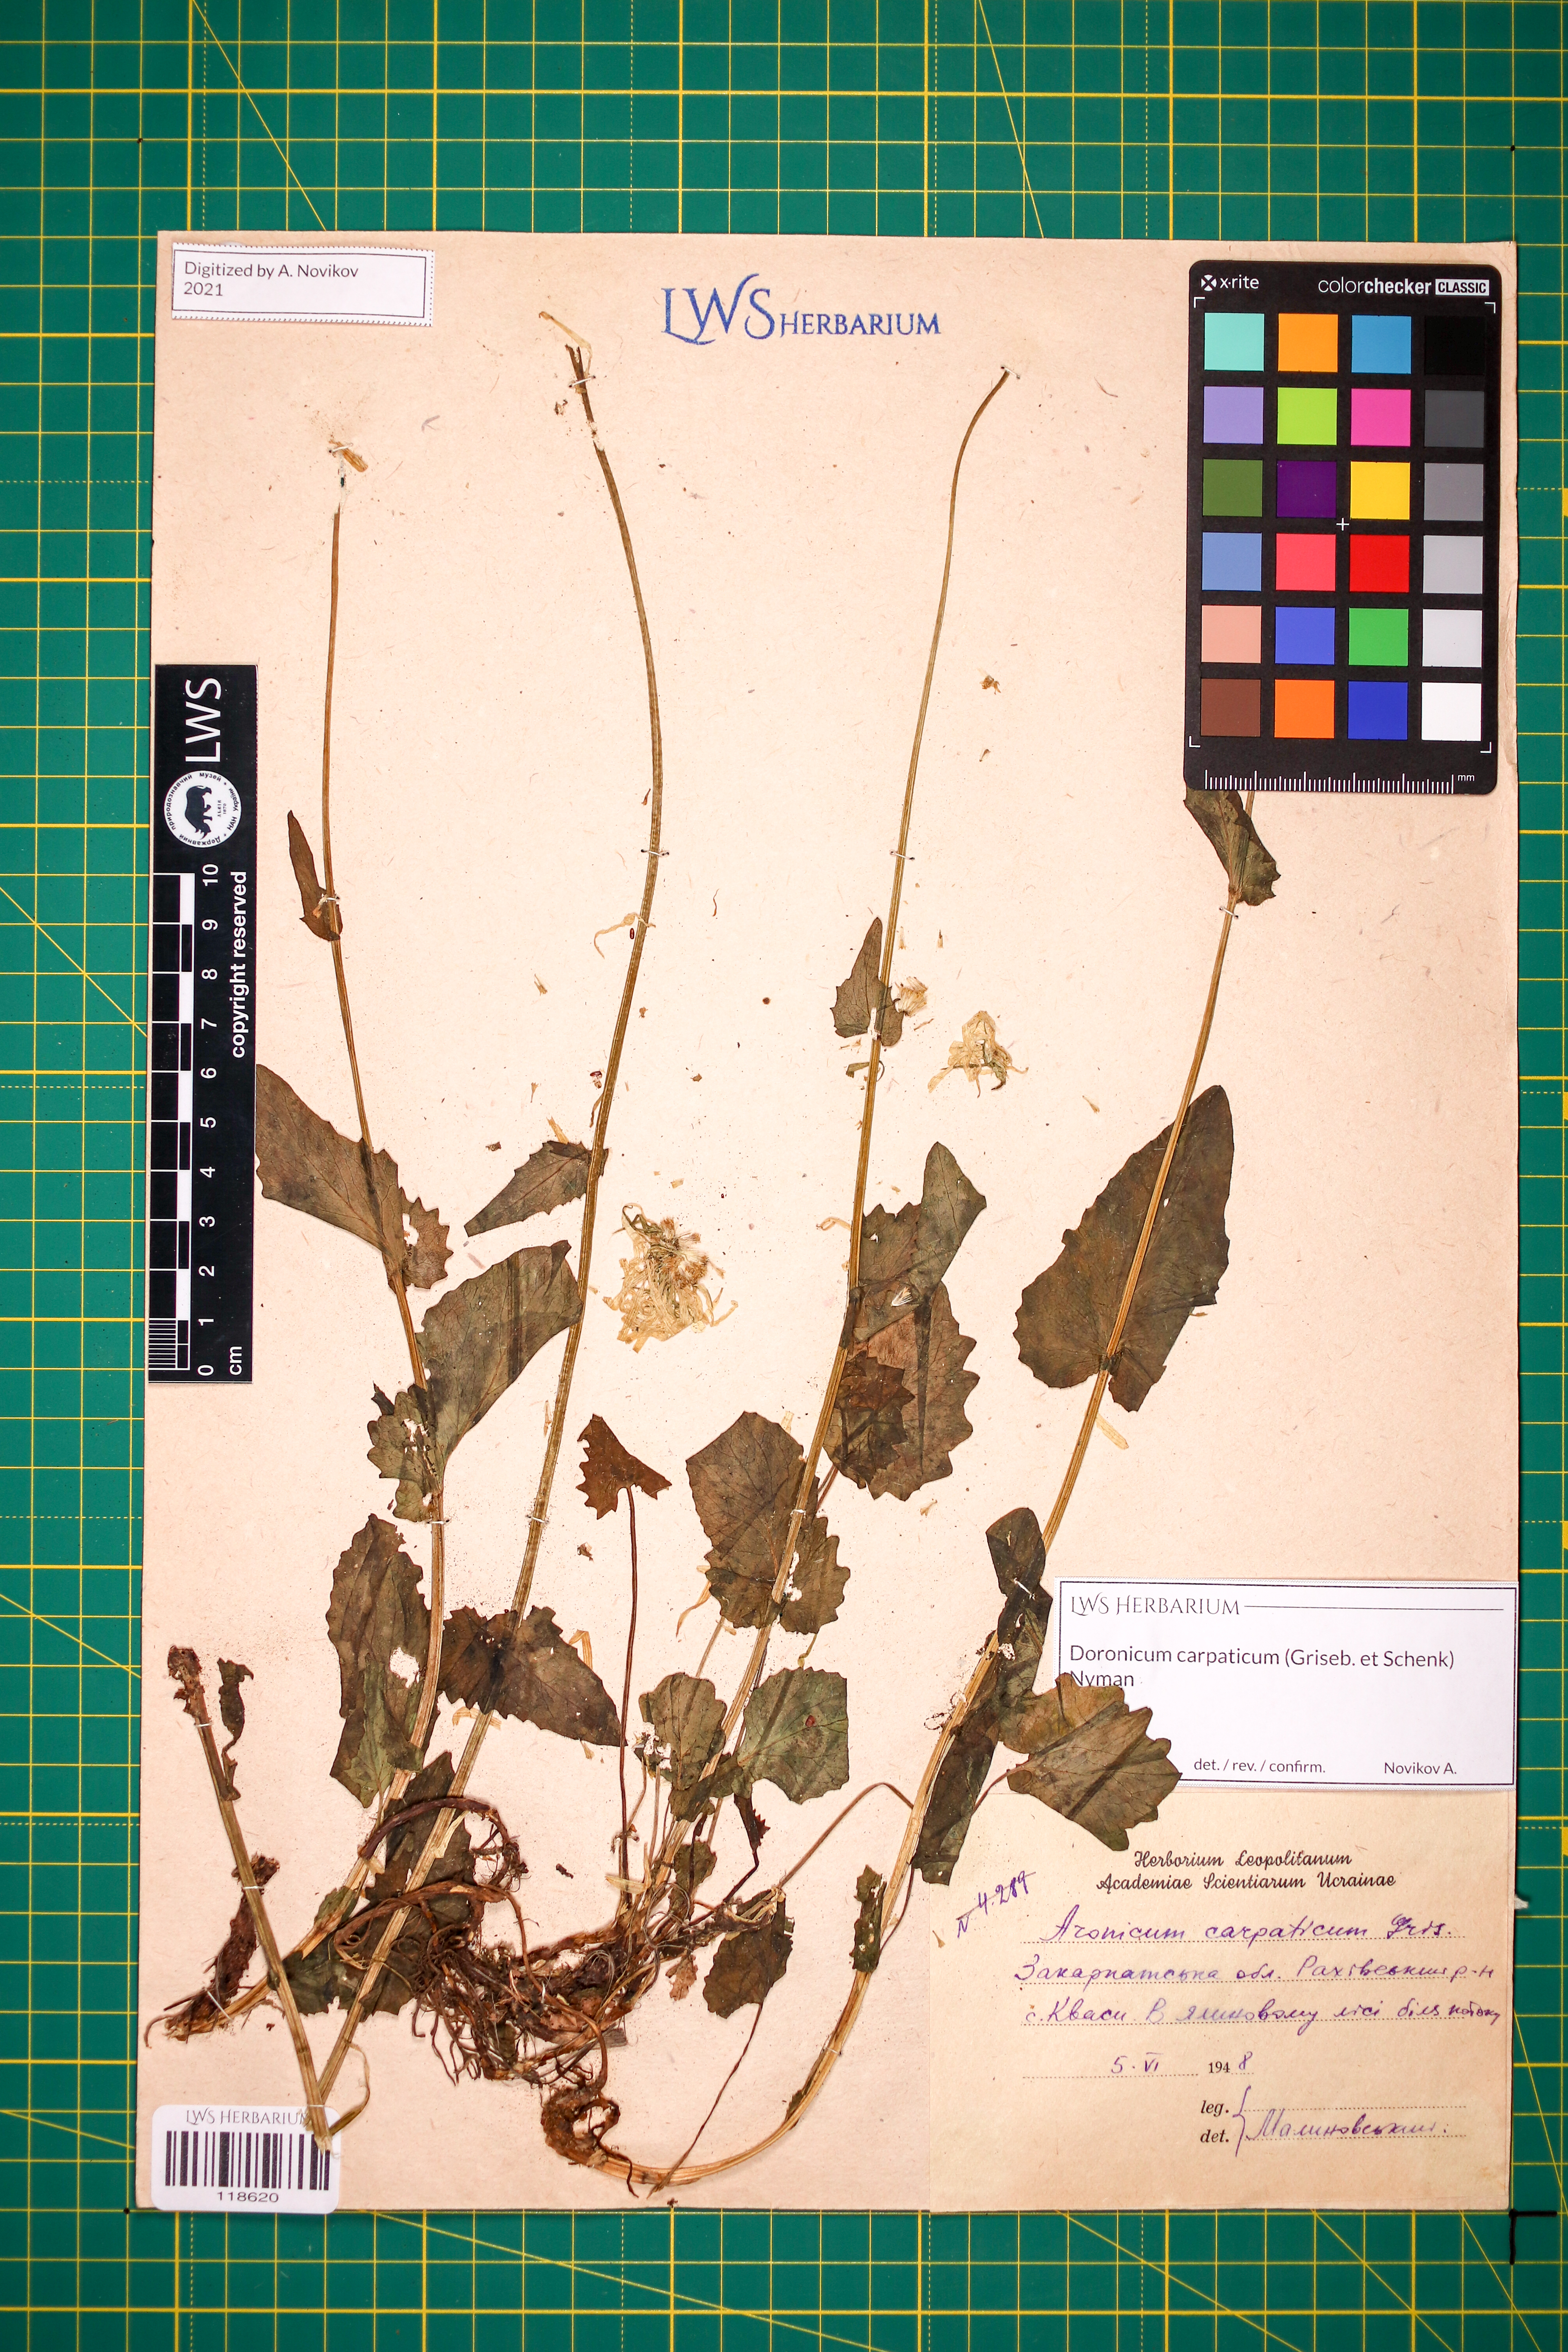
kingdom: Plantae
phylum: Tracheophyta
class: Magnoliopsida
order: Asterales
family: Asteraceae
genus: Doronicum
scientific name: Doronicum carpaticum
